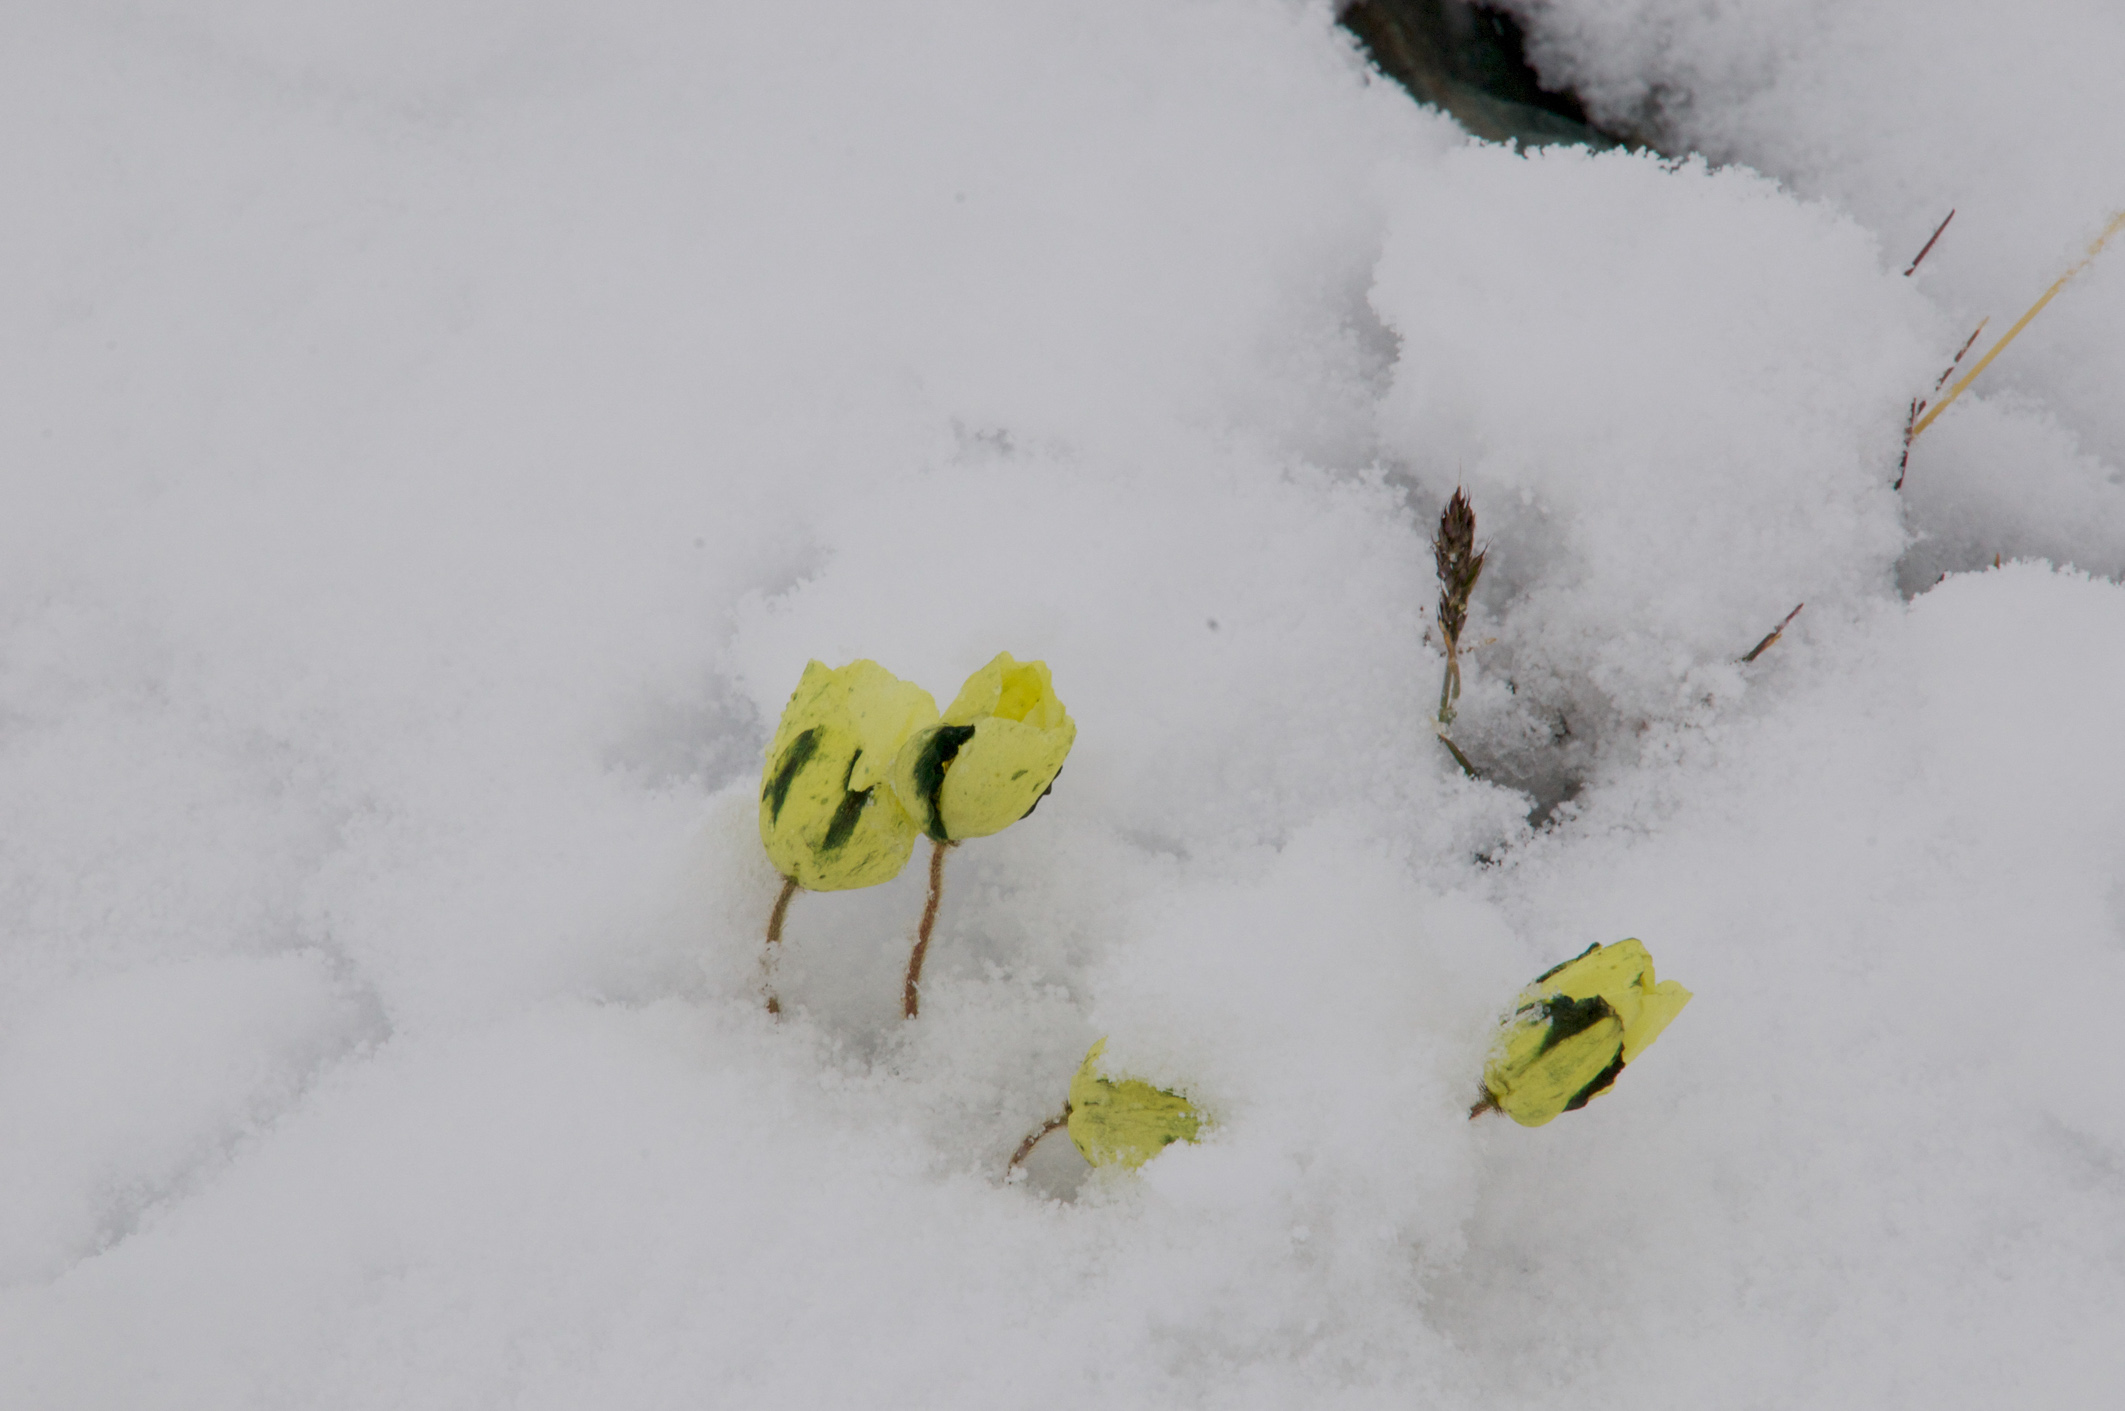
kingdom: Plantae
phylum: Tracheophyta
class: Magnoliopsida
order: Ranunculales
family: Papaveraceae
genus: Papaver
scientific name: Papaver canescens
